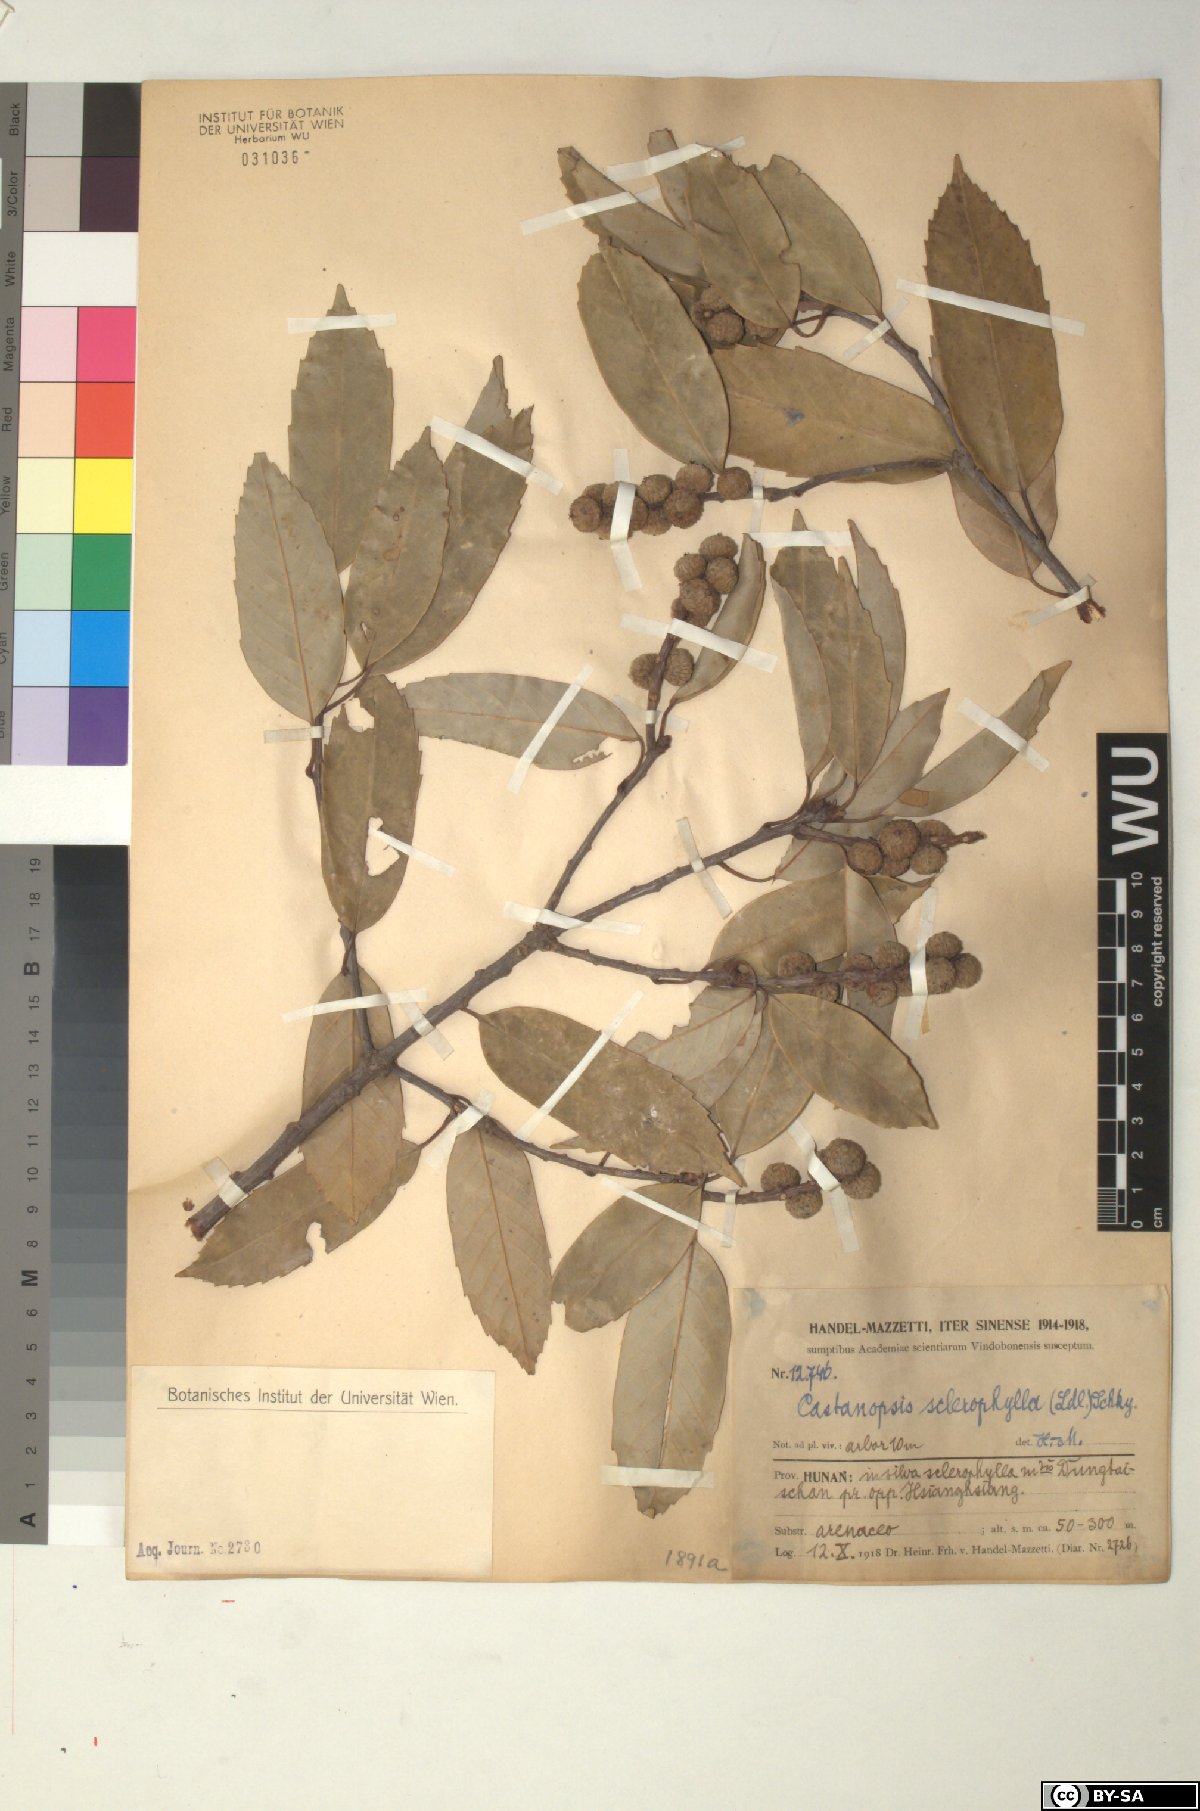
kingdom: Plantae
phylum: Tracheophyta
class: Magnoliopsida
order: Fagales
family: Fagaceae
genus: Castanopsis
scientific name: Castanopsis sclerophylla
